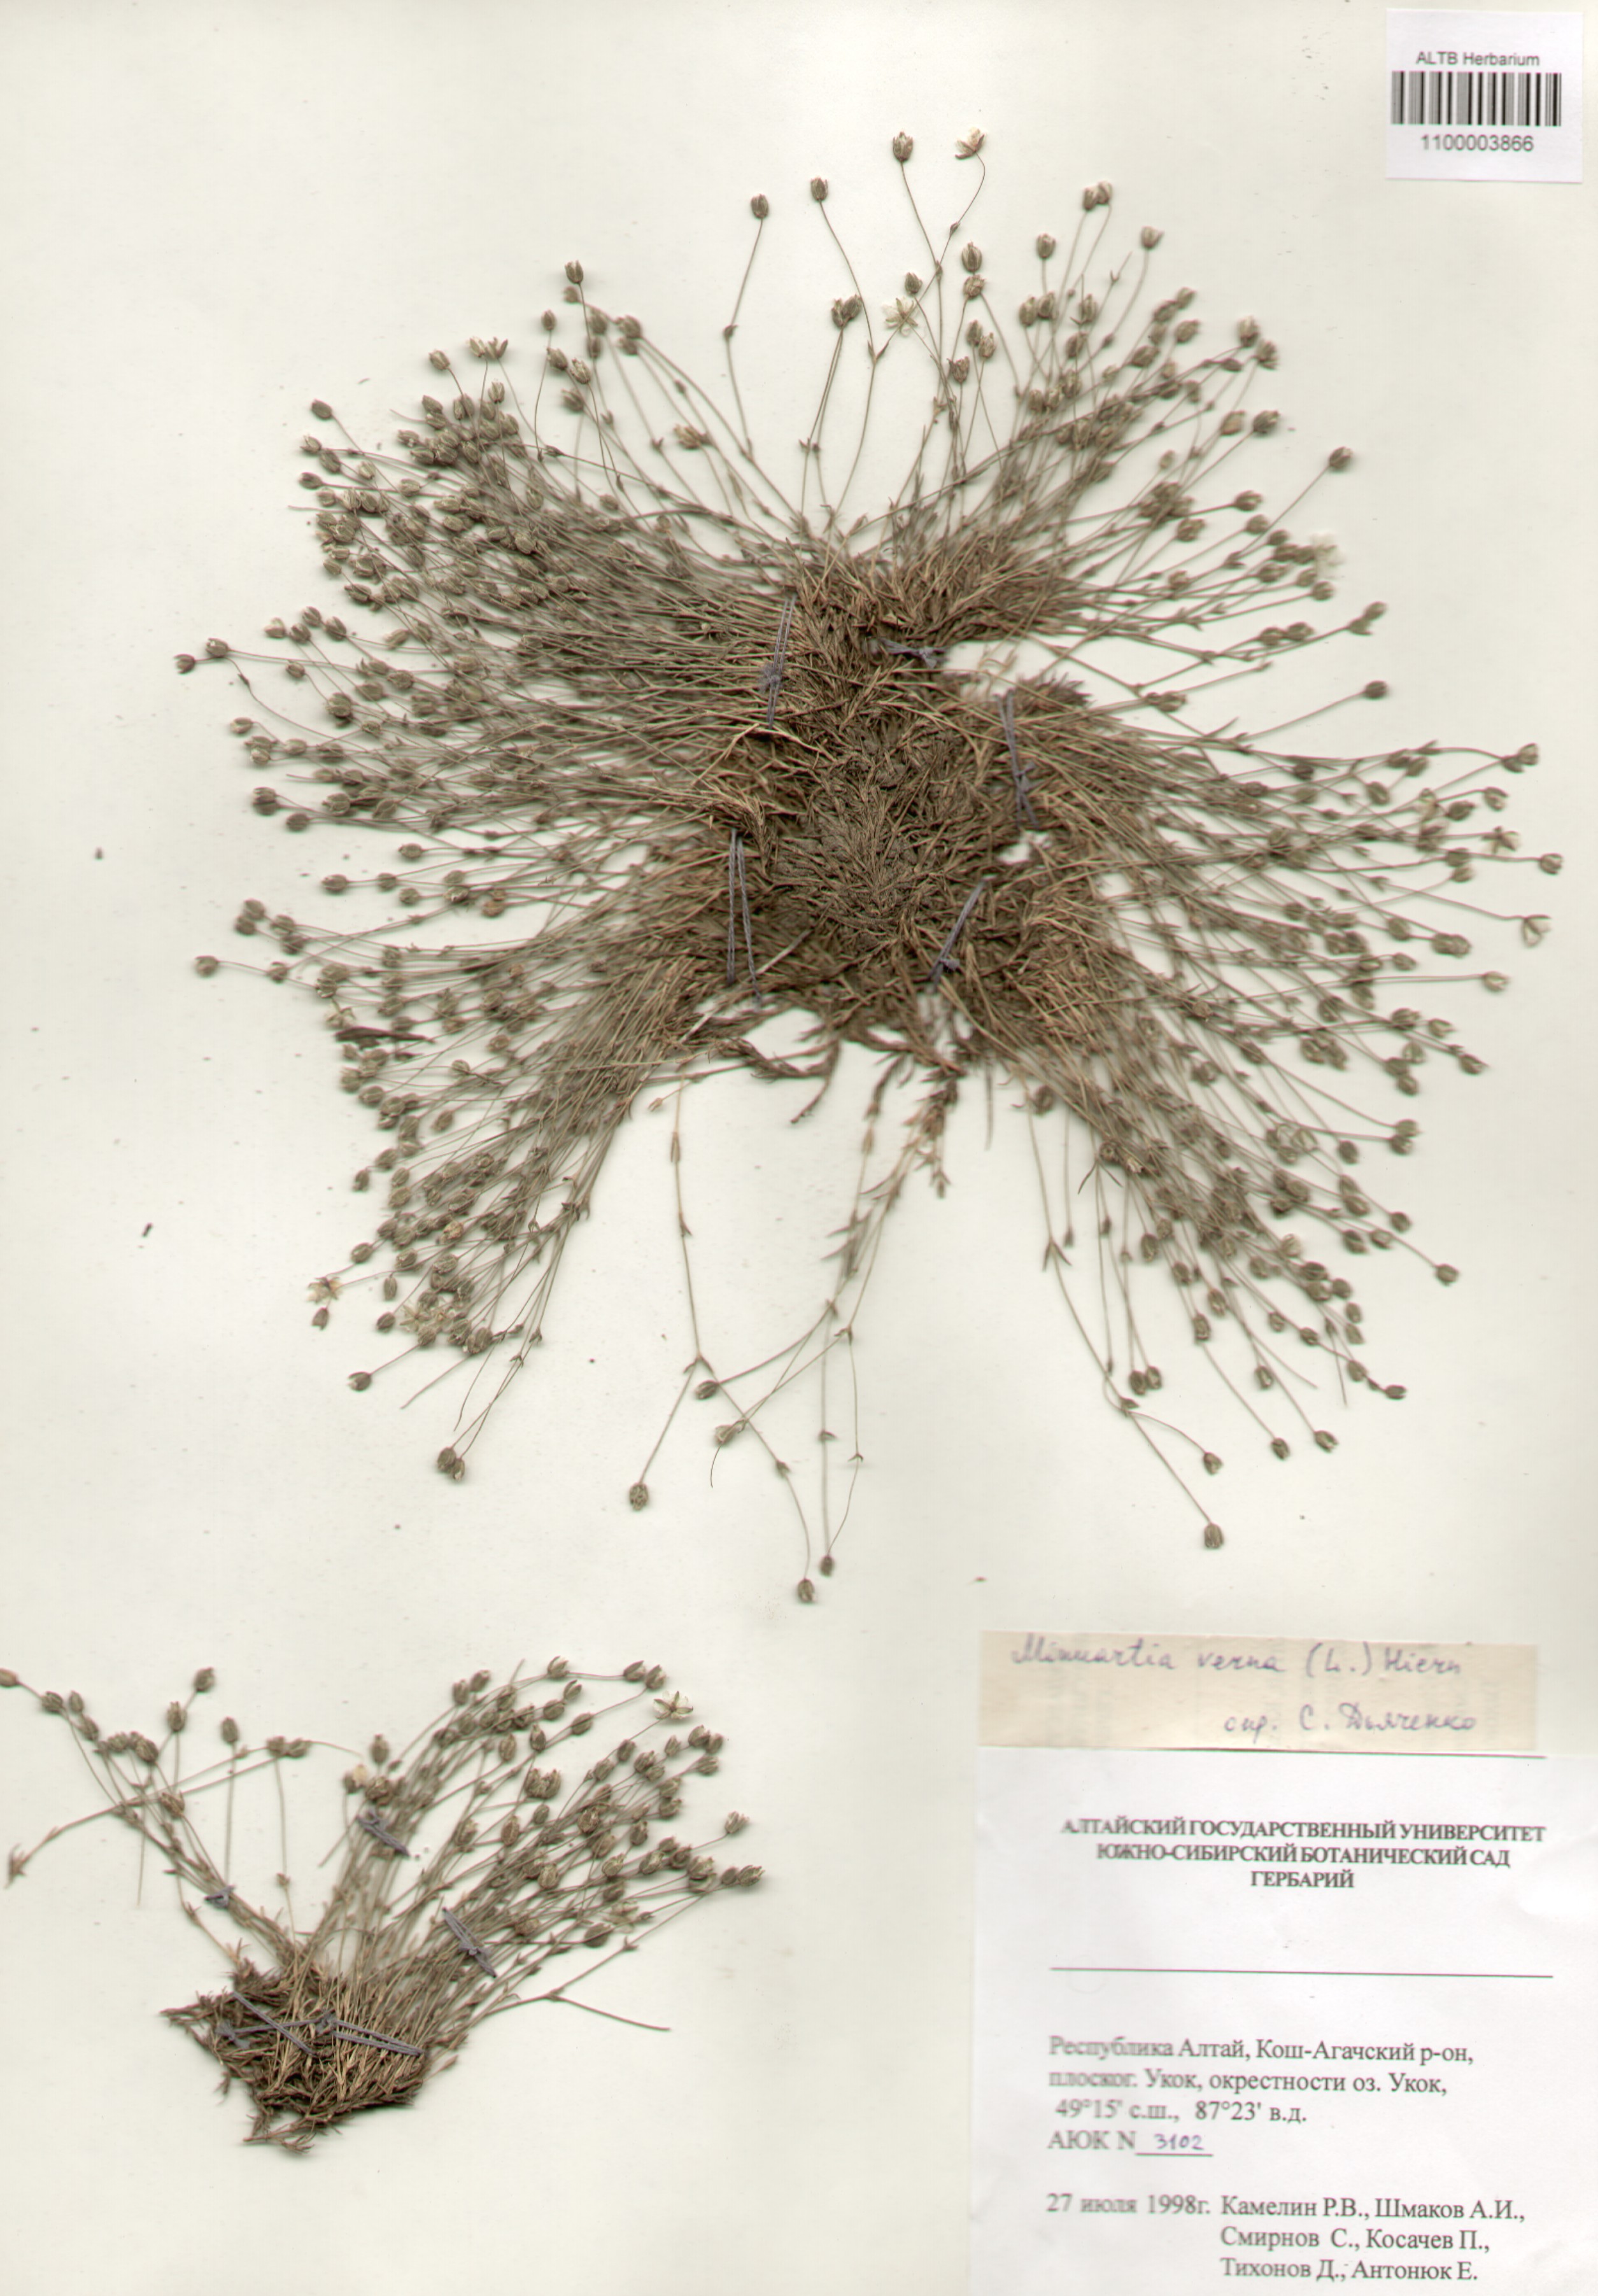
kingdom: Plantae
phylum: Tracheophyta
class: Magnoliopsida
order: Caryophyllales
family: Caryophyllaceae
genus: Sabulina
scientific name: Sabulina verna
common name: Spring sandwort
